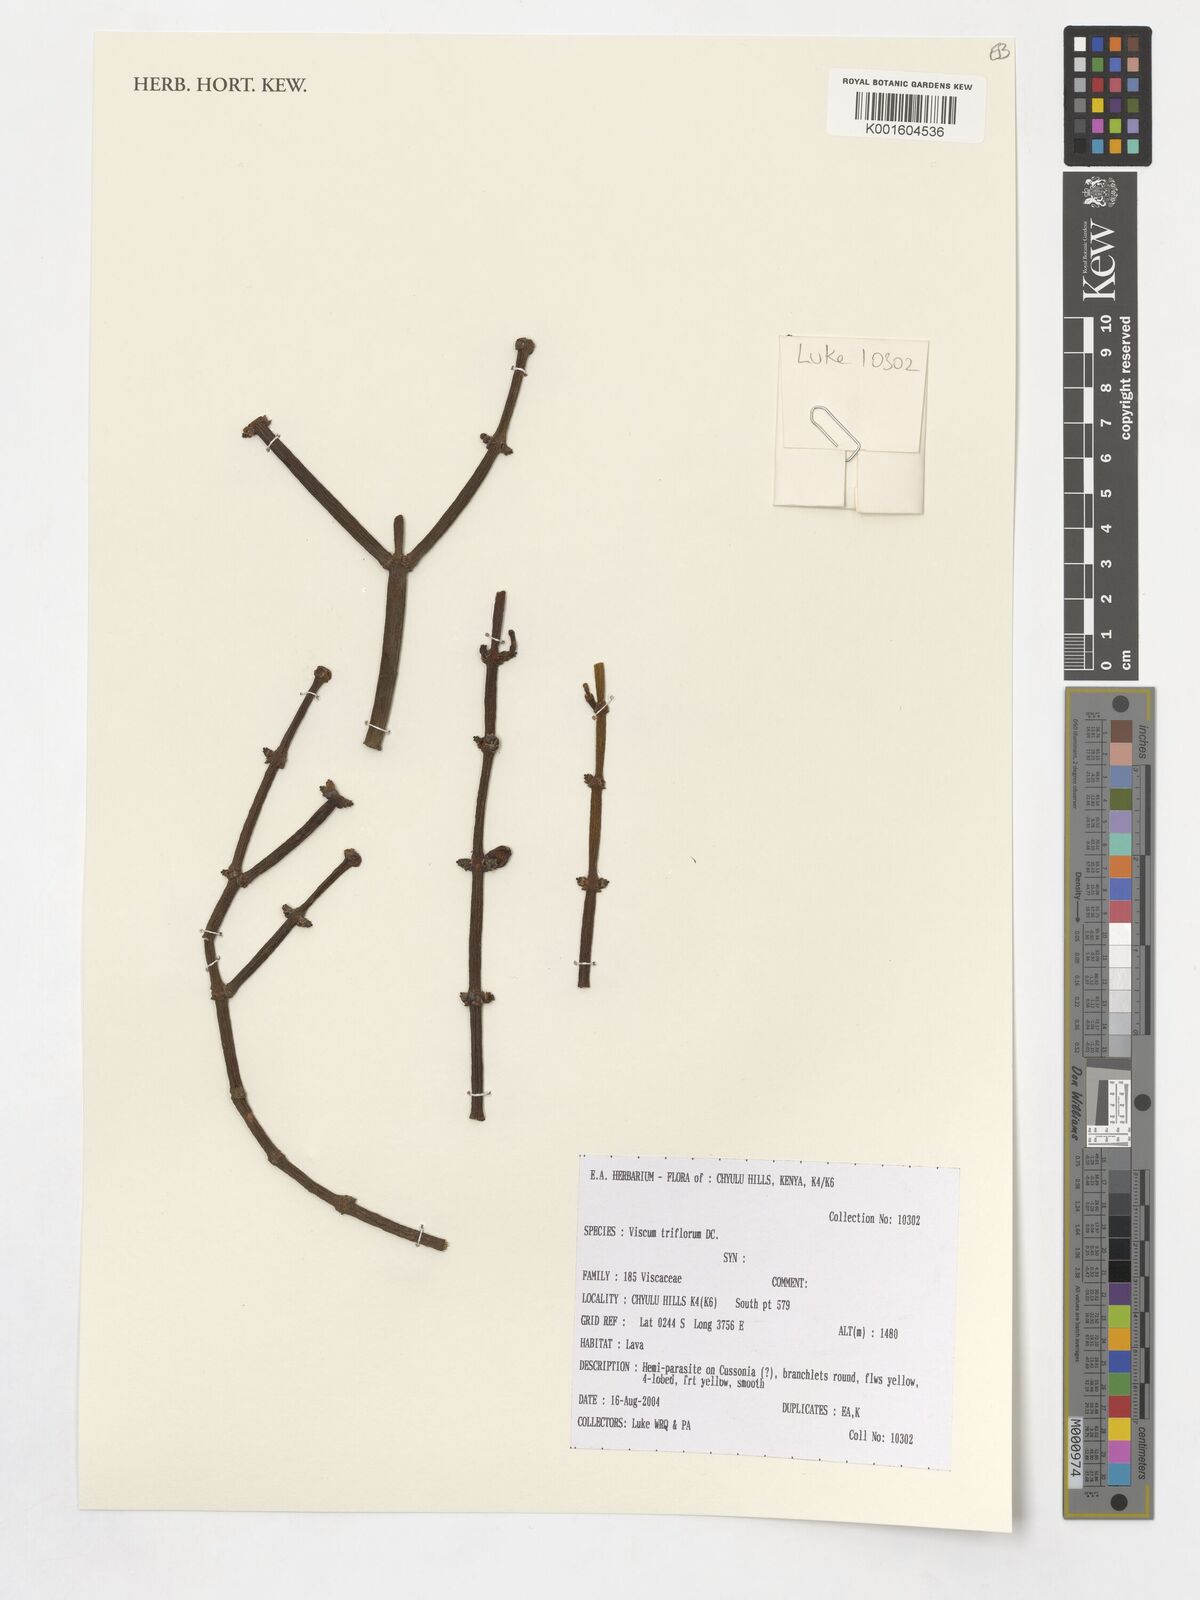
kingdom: Plantae
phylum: Tracheophyta
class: Magnoliopsida
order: Santalales
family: Viscaceae
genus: Viscum
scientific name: Viscum triflorum
